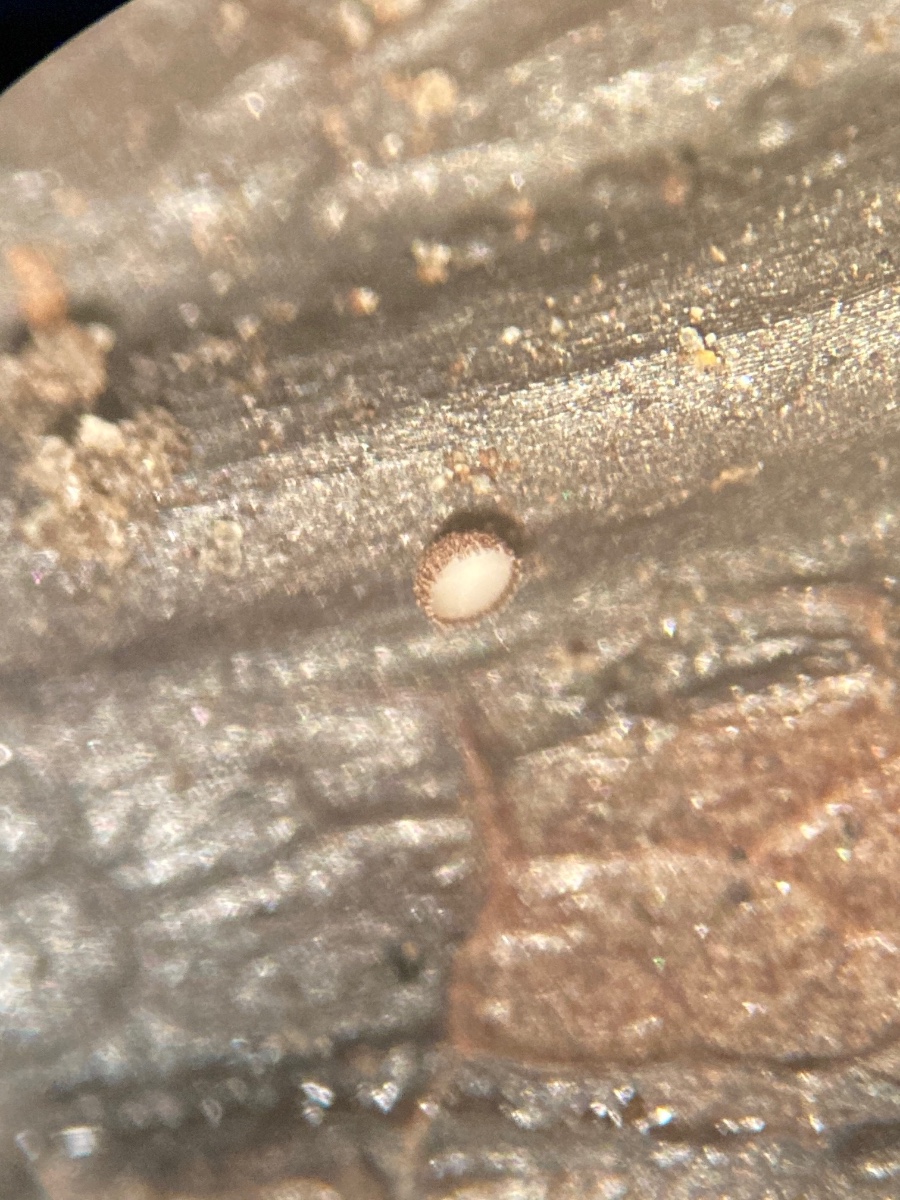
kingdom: Fungi
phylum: Ascomycota
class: Leotiomycetes
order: Helotiales
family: Lachnaceae
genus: Brunnipila
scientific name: Brunnipila brunneola
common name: læderbrun frynseskive
